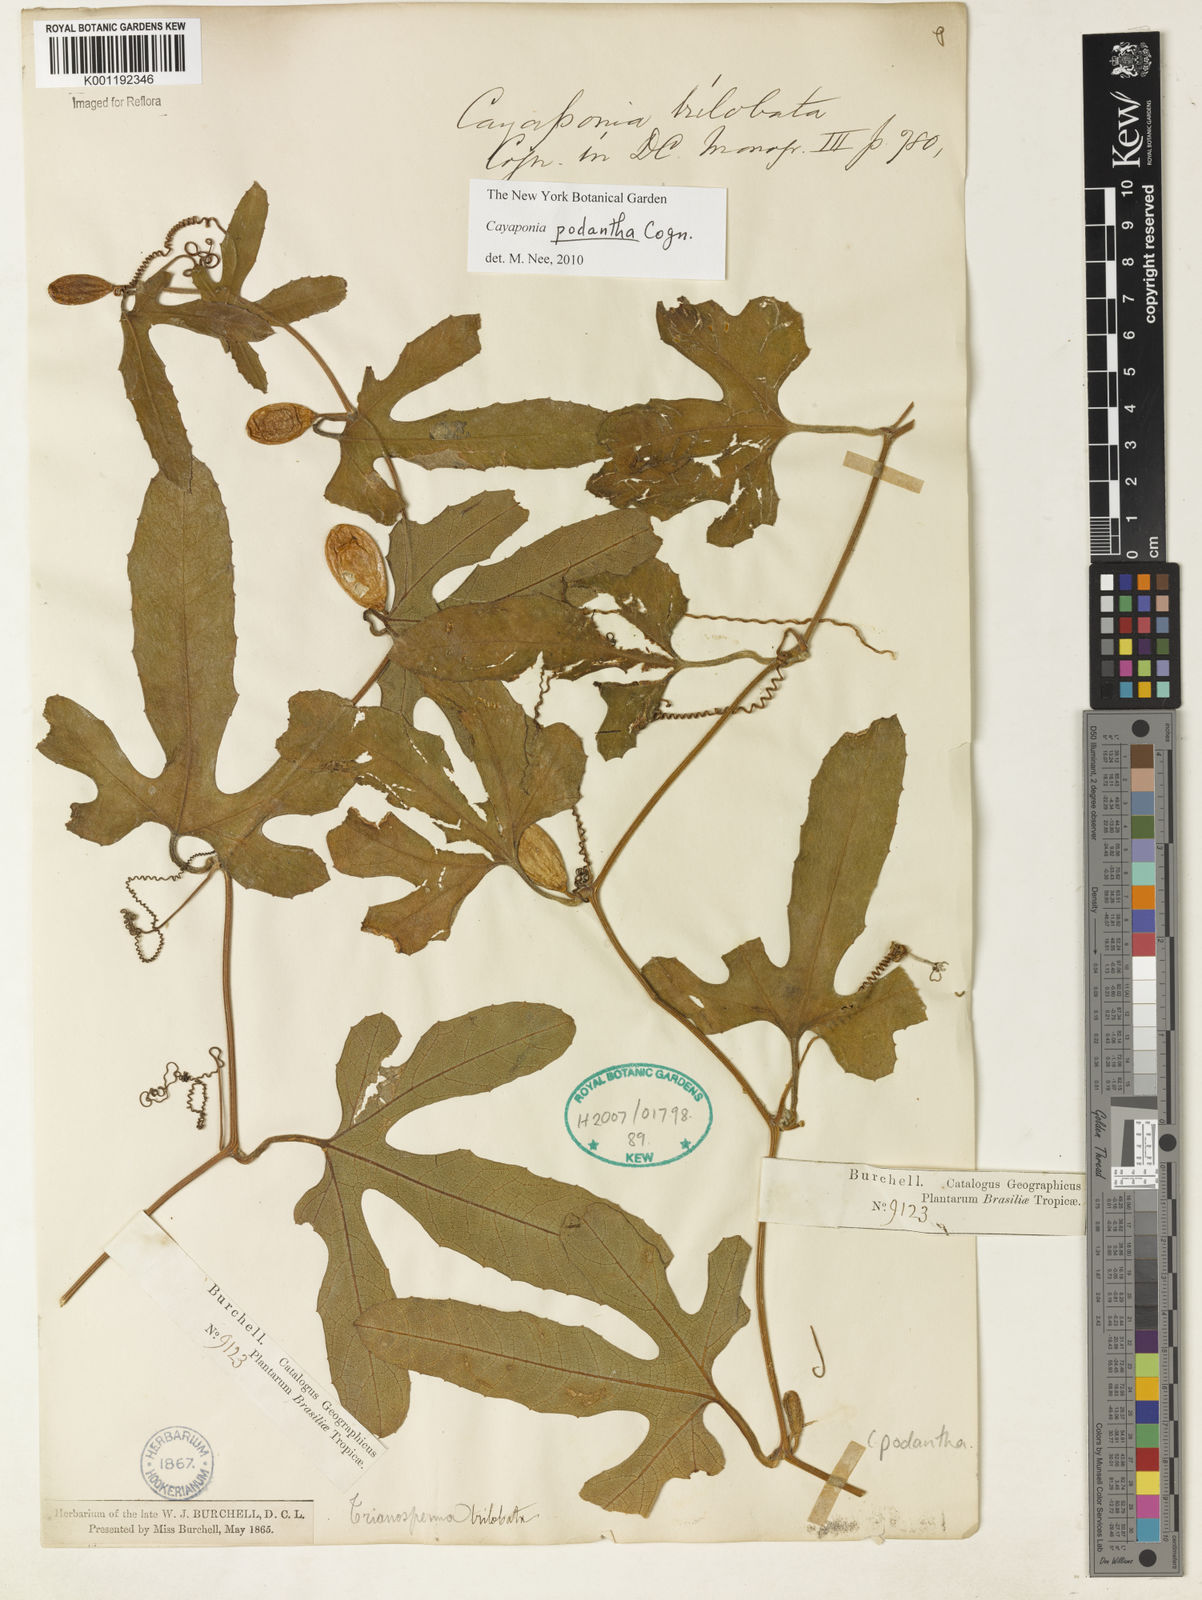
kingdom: Plantae
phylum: Tracheophyta
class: Magnoliopsida
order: Cucurbitales
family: Cucurbitaceae
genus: Cayaponia
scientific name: Cayaponia podantha
